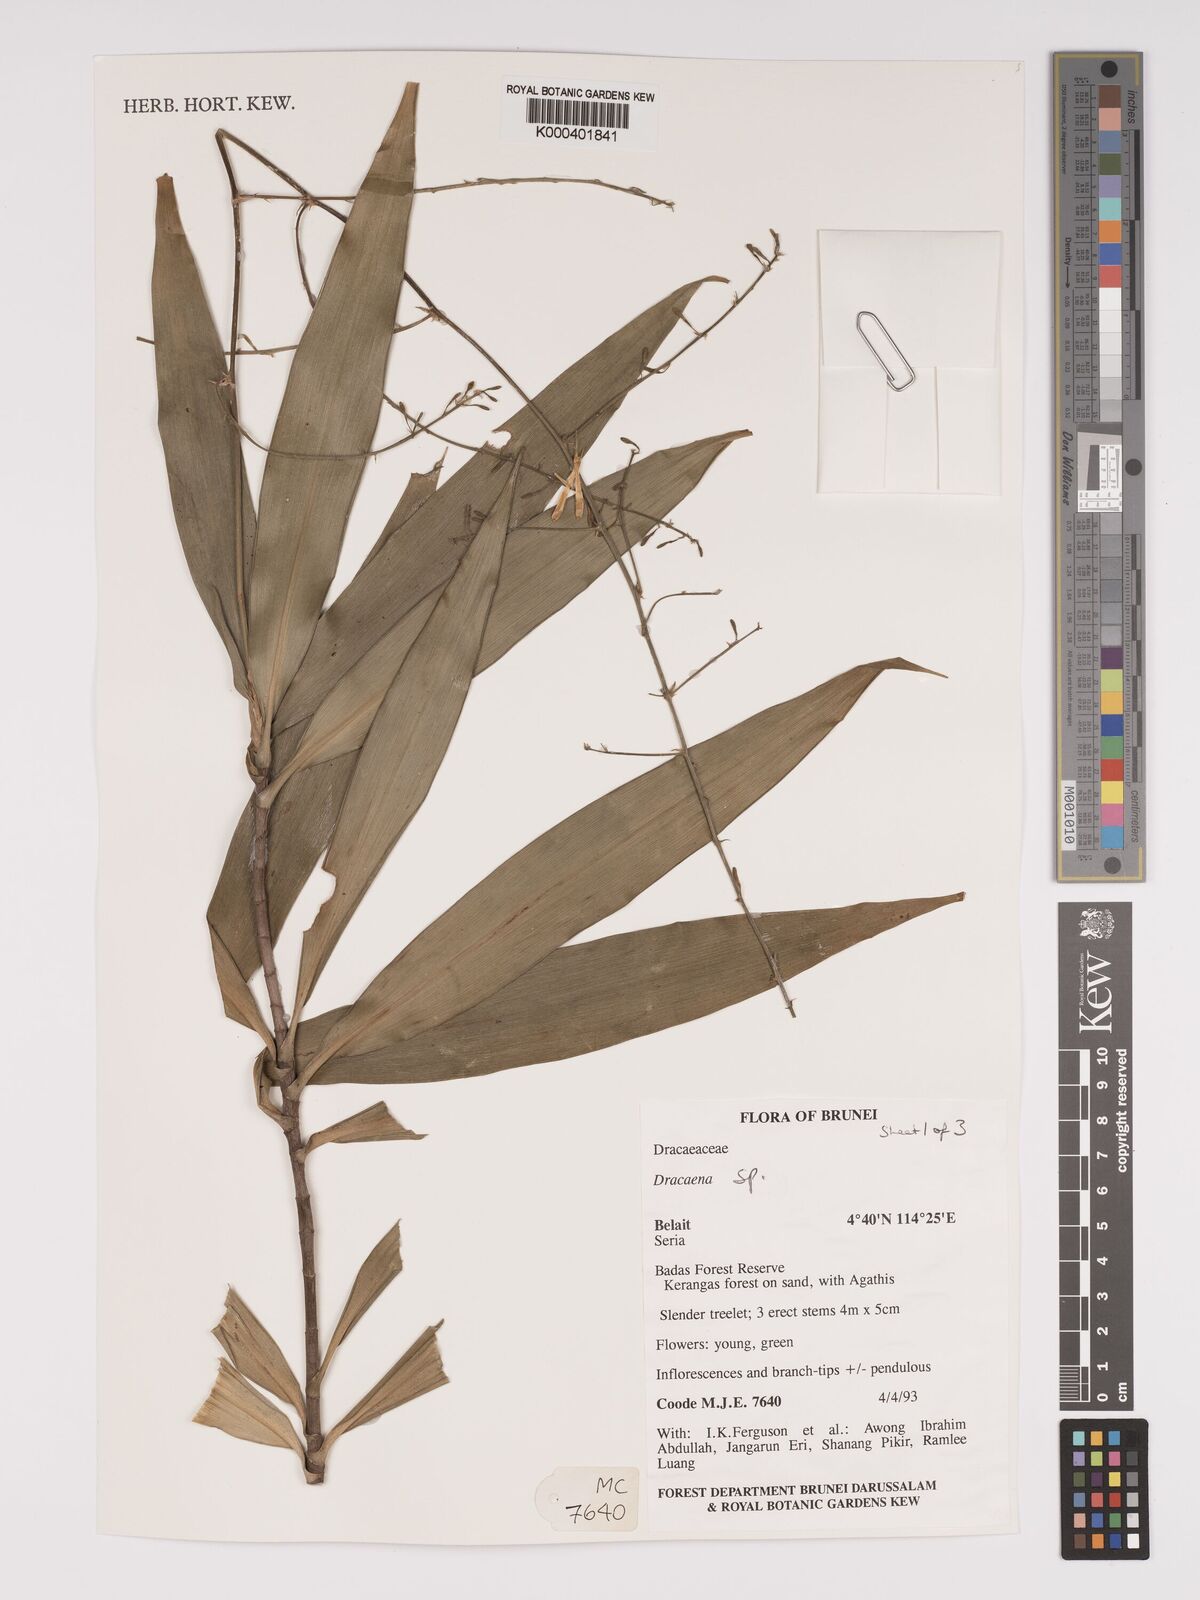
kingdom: Plantae
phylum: Tracheophyta
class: Liliopsida
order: Asparagales
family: Asparagaceae
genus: Dracaena
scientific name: Dracaena
